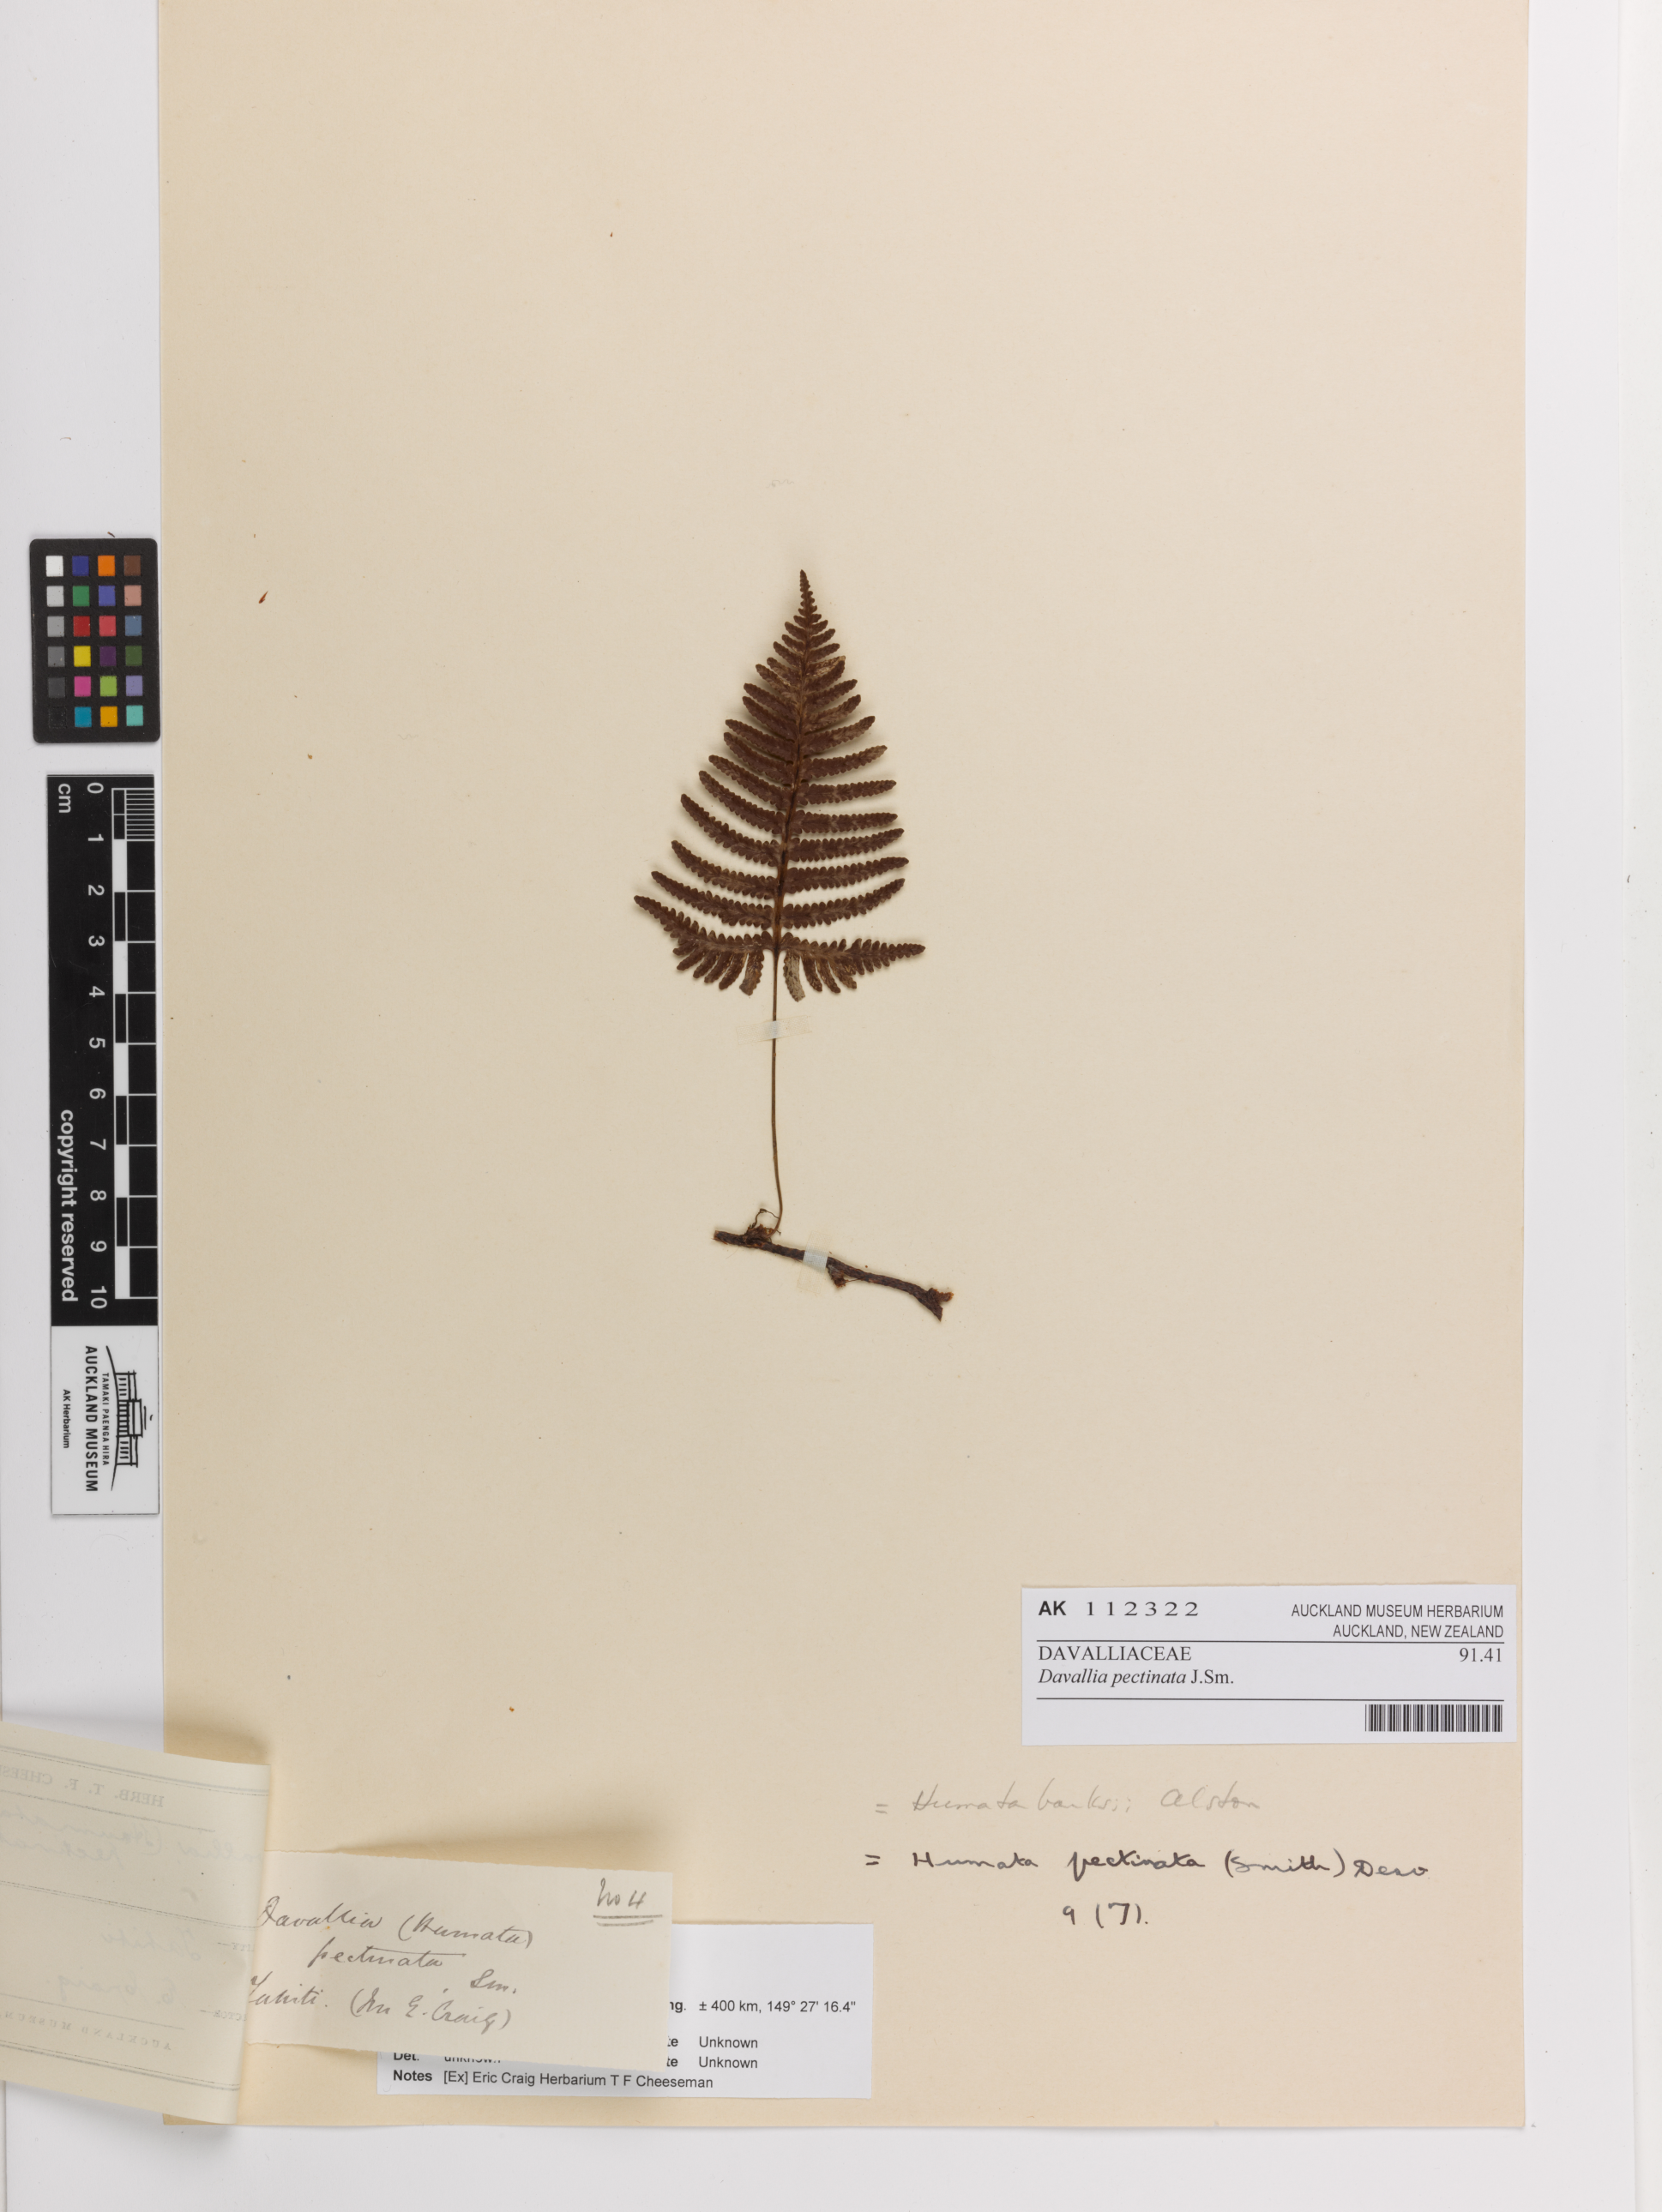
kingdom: Plantae
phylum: Tracheophyta
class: Polypodiopsida
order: Polypodiales
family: Davalliaceae
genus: Davallia
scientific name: Davallia pectinata
